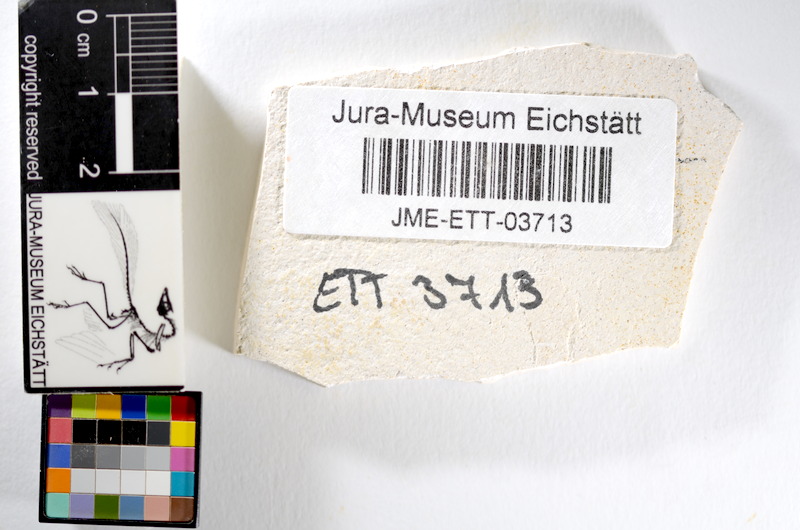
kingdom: Animalia
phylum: Chordata
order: Salmoniformes
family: Orthogonikleithridae
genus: Orthogonikleithrus
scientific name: Orthogonikleithrus hoelli
